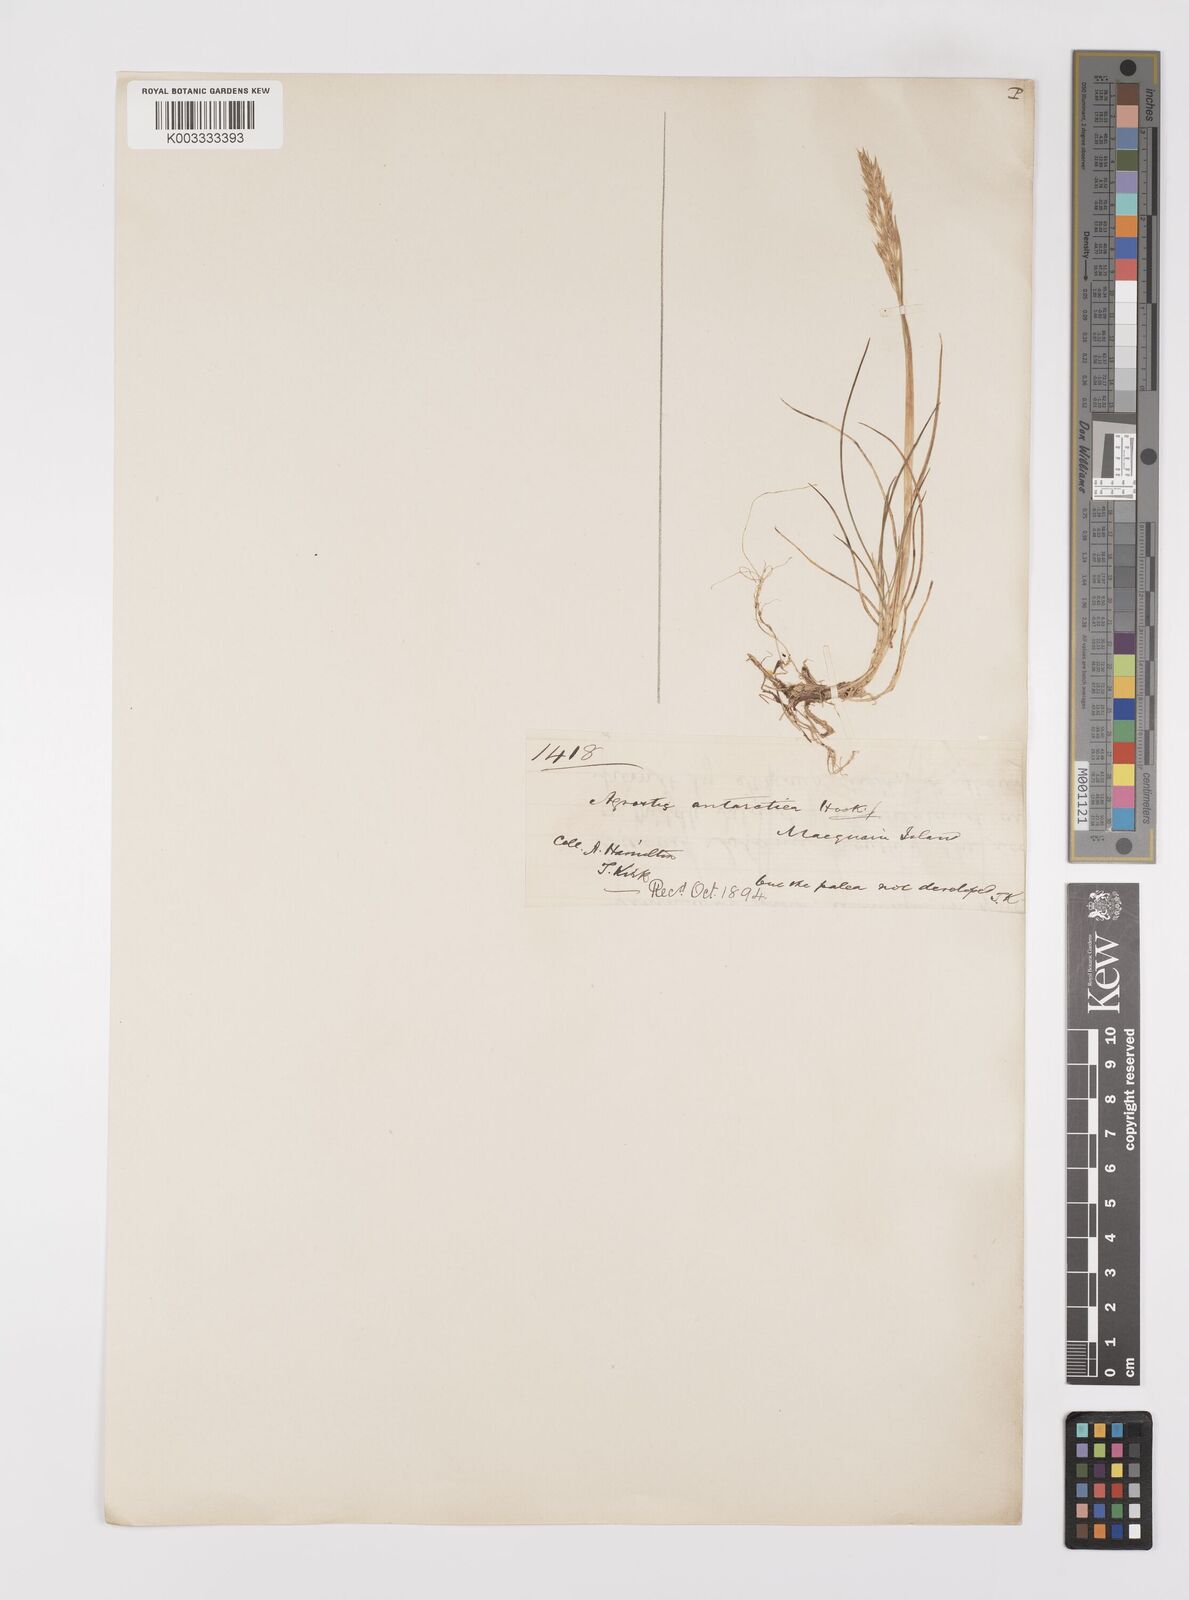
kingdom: Plantae
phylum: Tracheophyta
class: Liliopsida
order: Poales
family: Poaceae
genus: Polypogon
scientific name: Polypogon magellanicus
